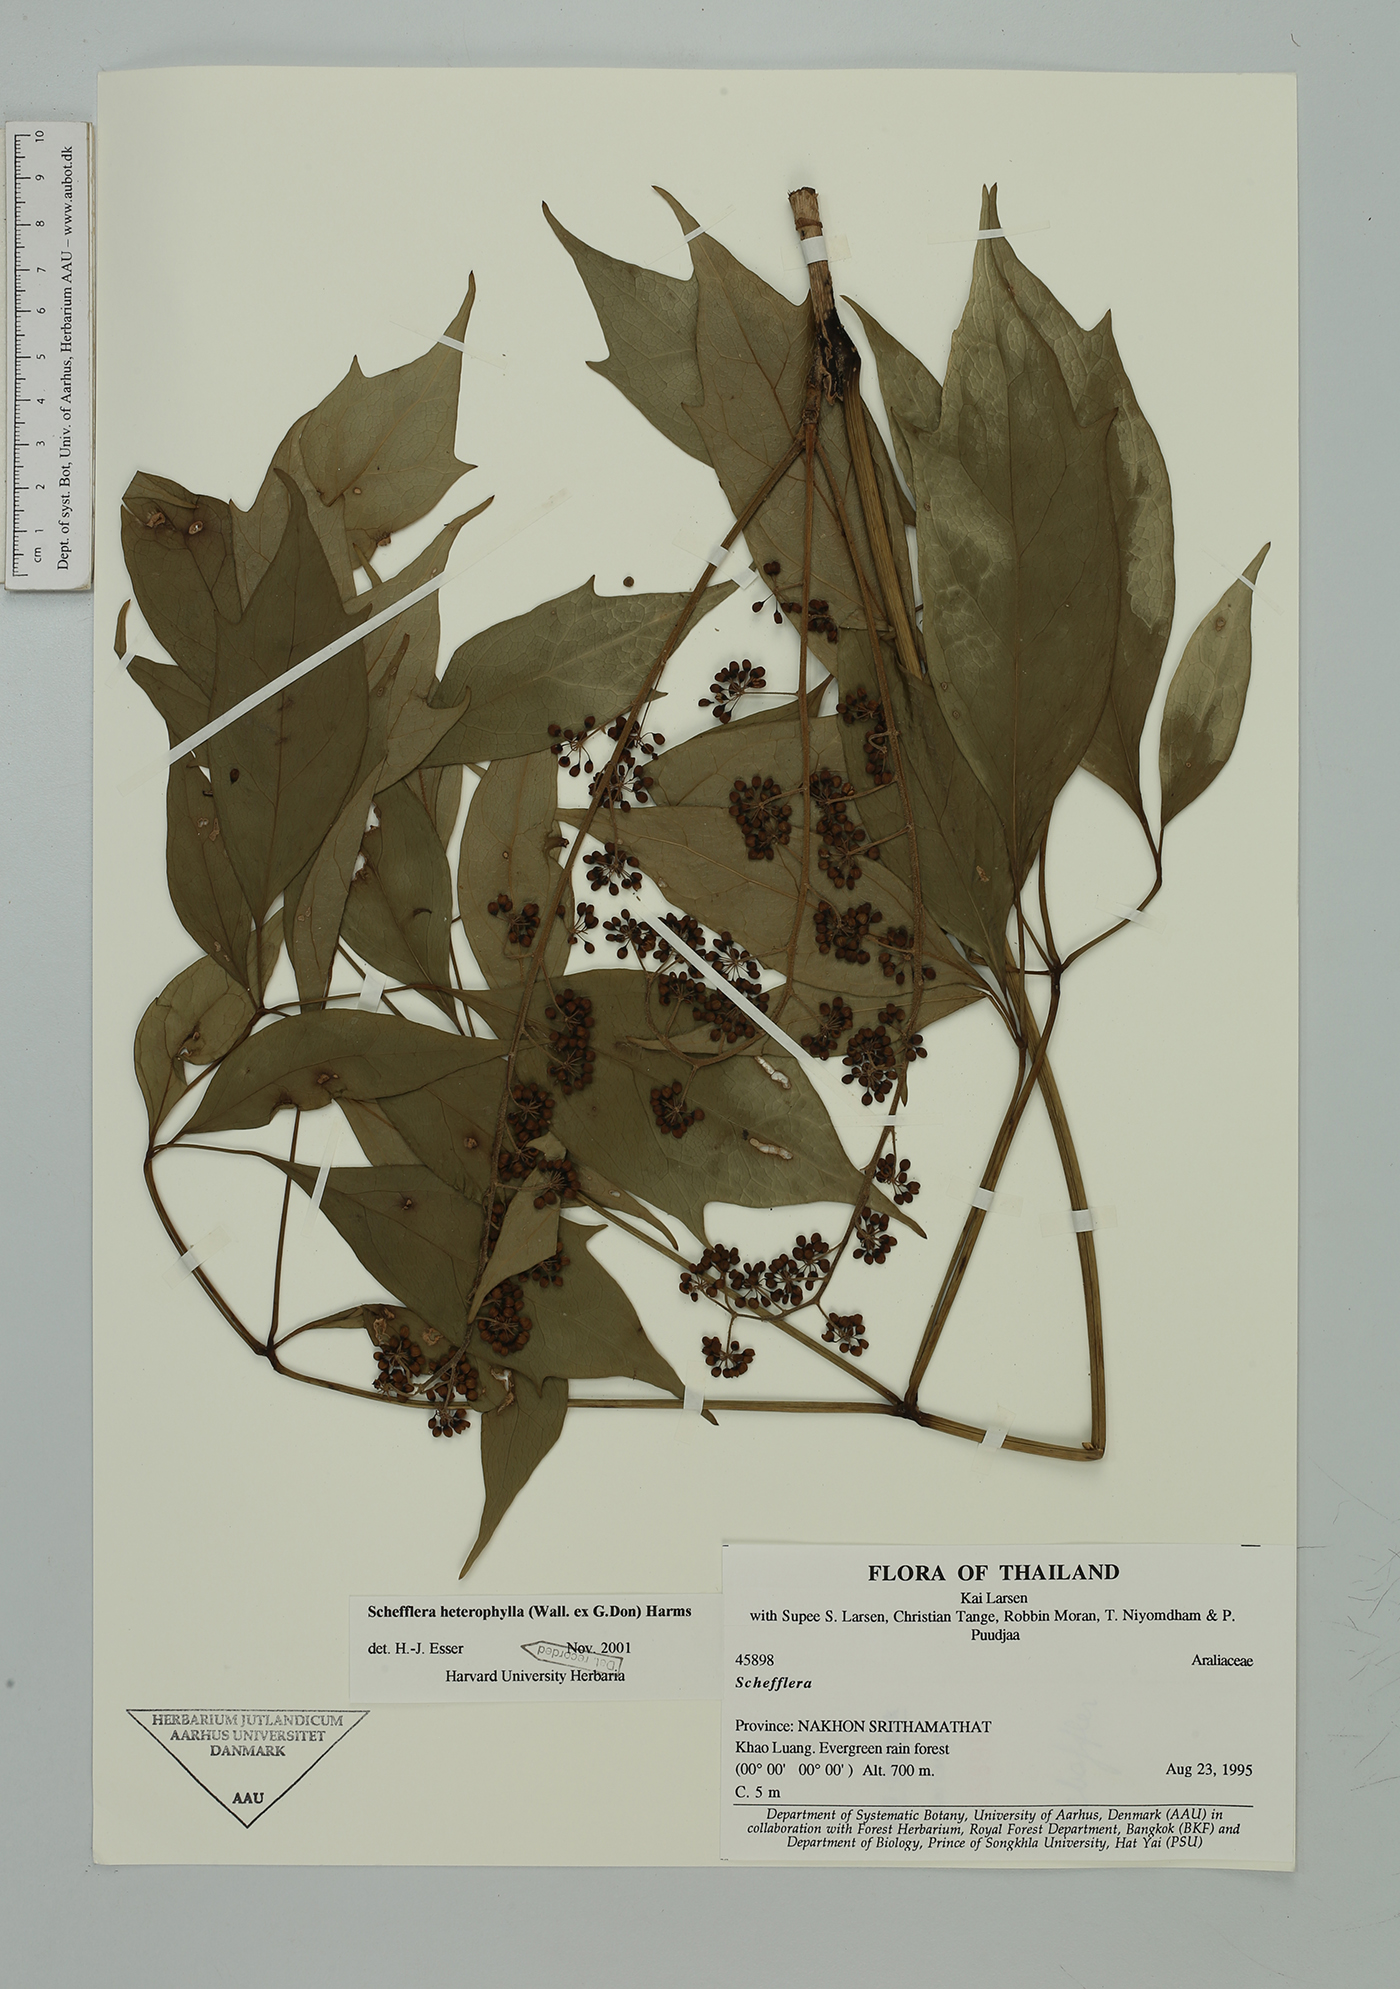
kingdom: Plantae
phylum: Tracheophyta
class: Magnoliopsida
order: Apiales
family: Araliaceae
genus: Heptapleurum
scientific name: Heptapleurum heterophyllum
